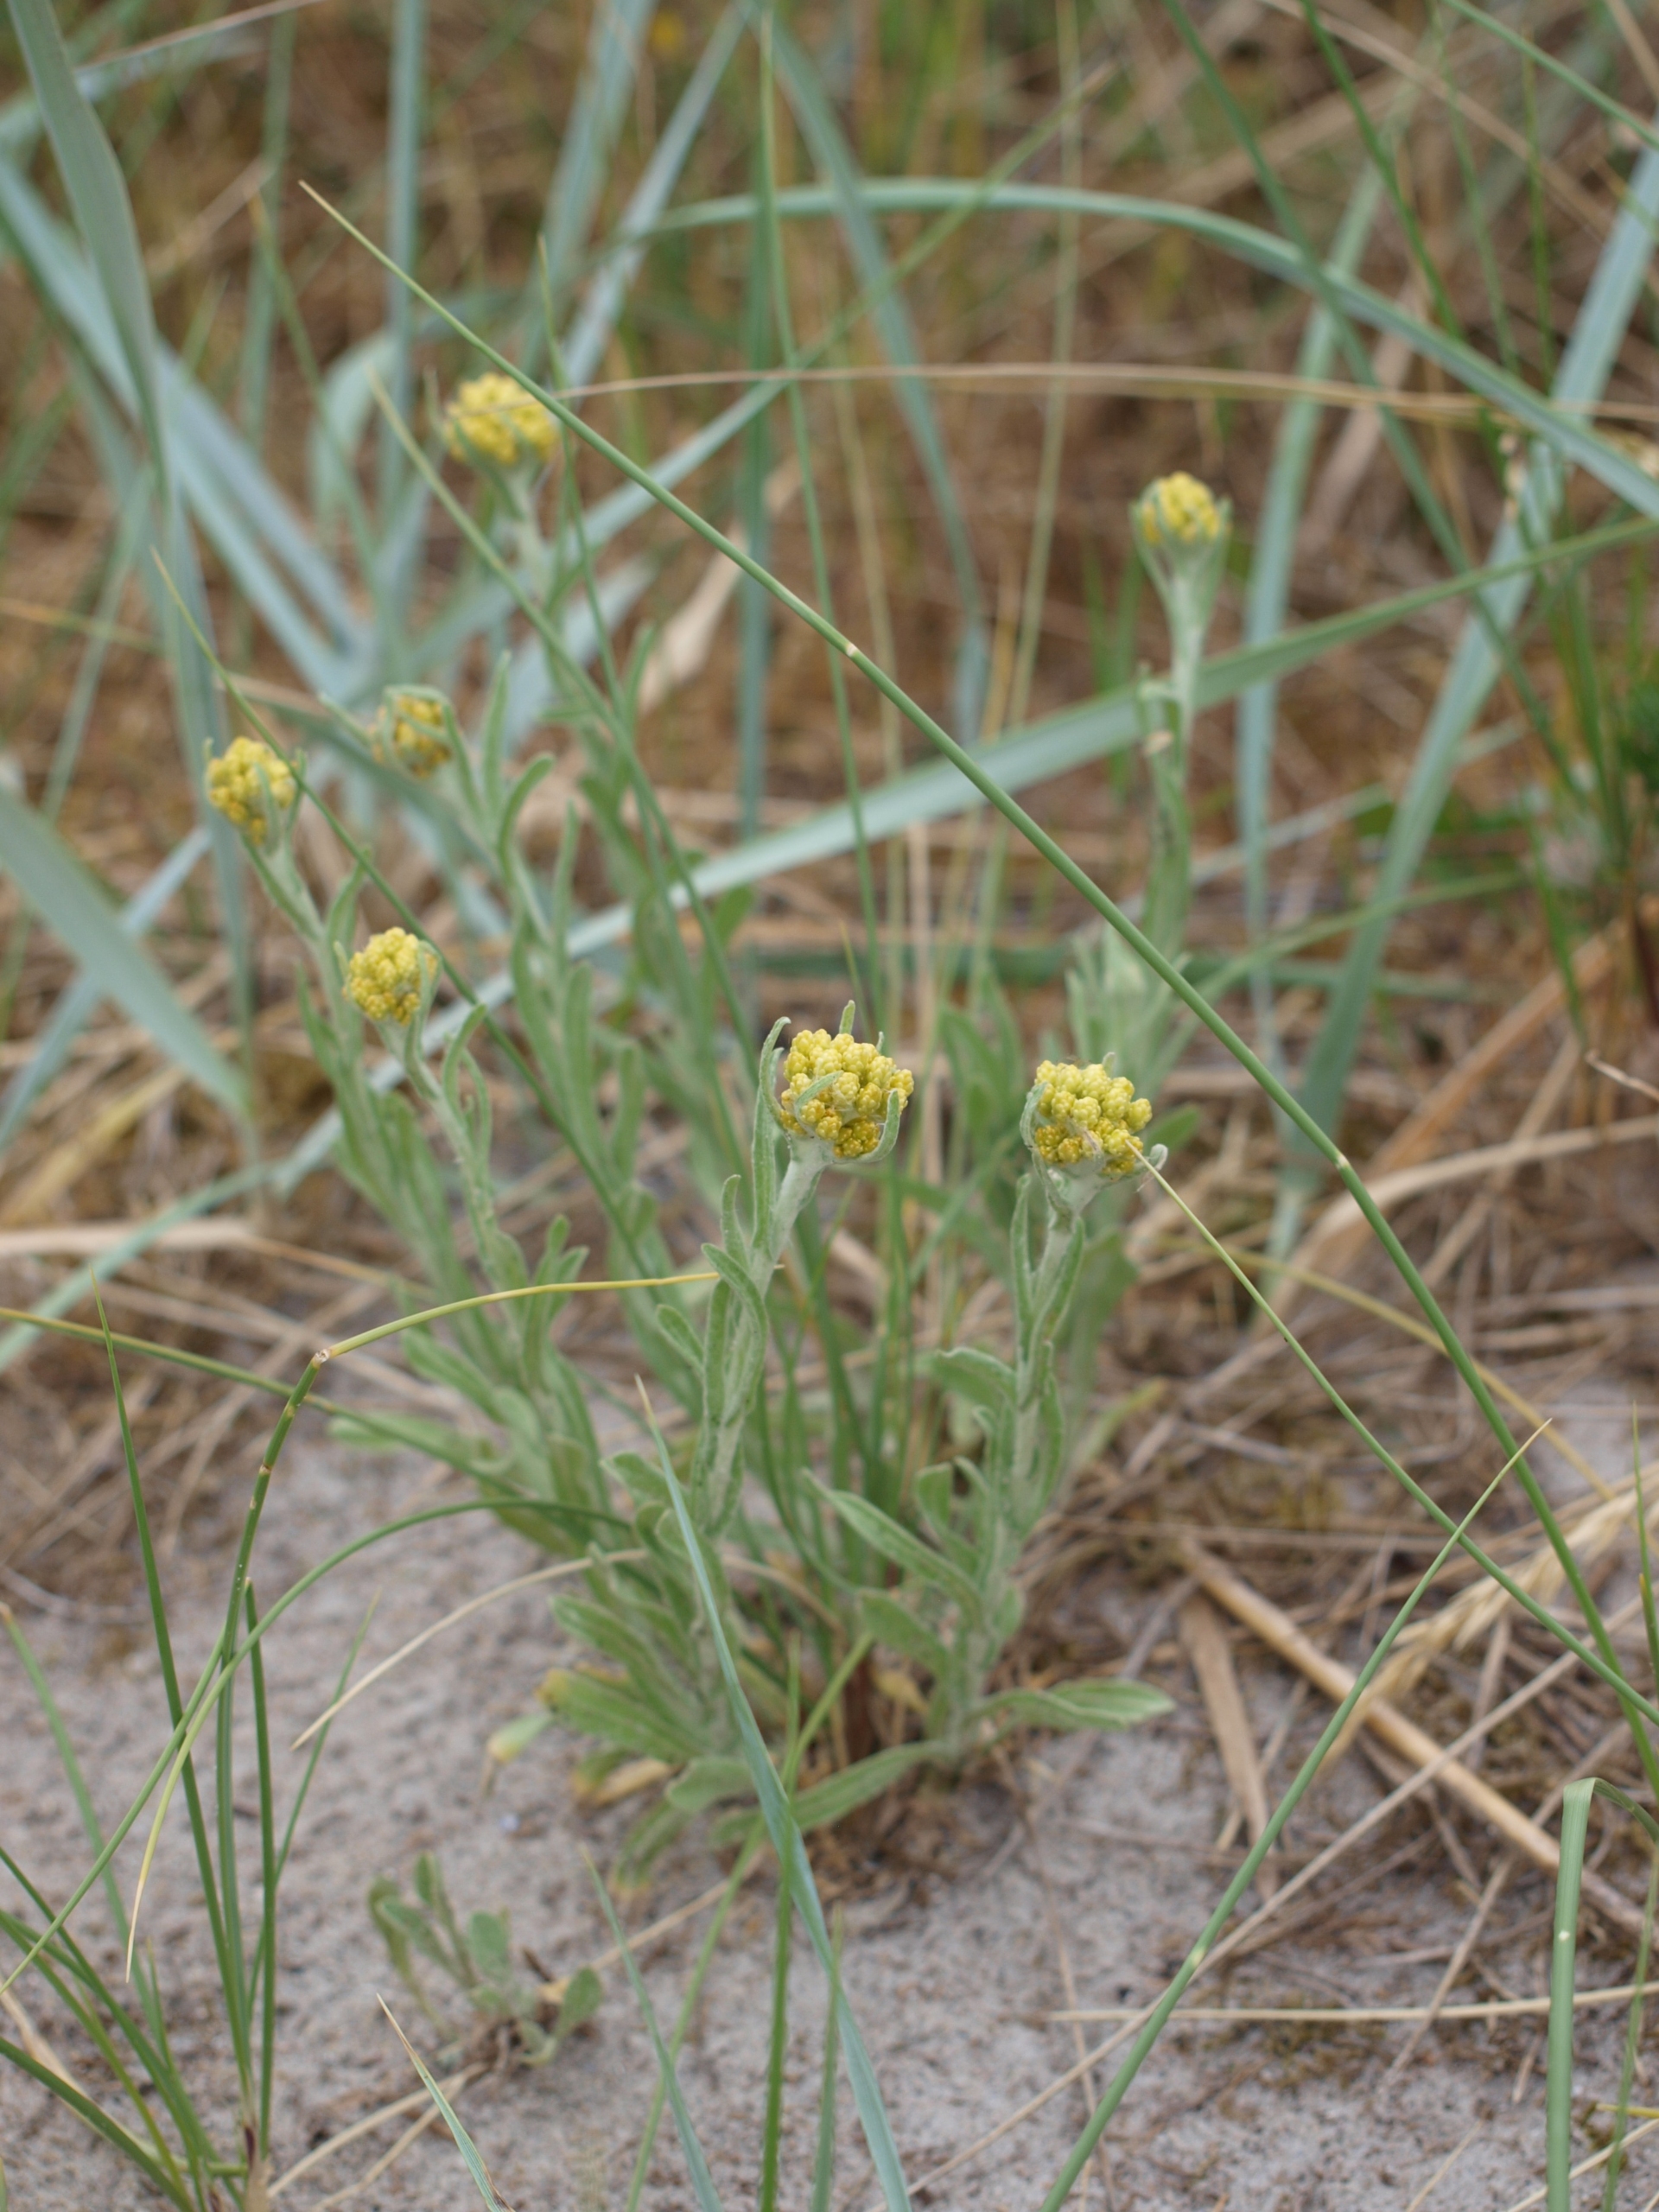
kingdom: Plantae
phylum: Tracheophyta
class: Magnoliopsida
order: Asterales
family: Asteraceae
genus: Helichrysum
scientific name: Helichrysum arenarium
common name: Gul evighedsblomst
